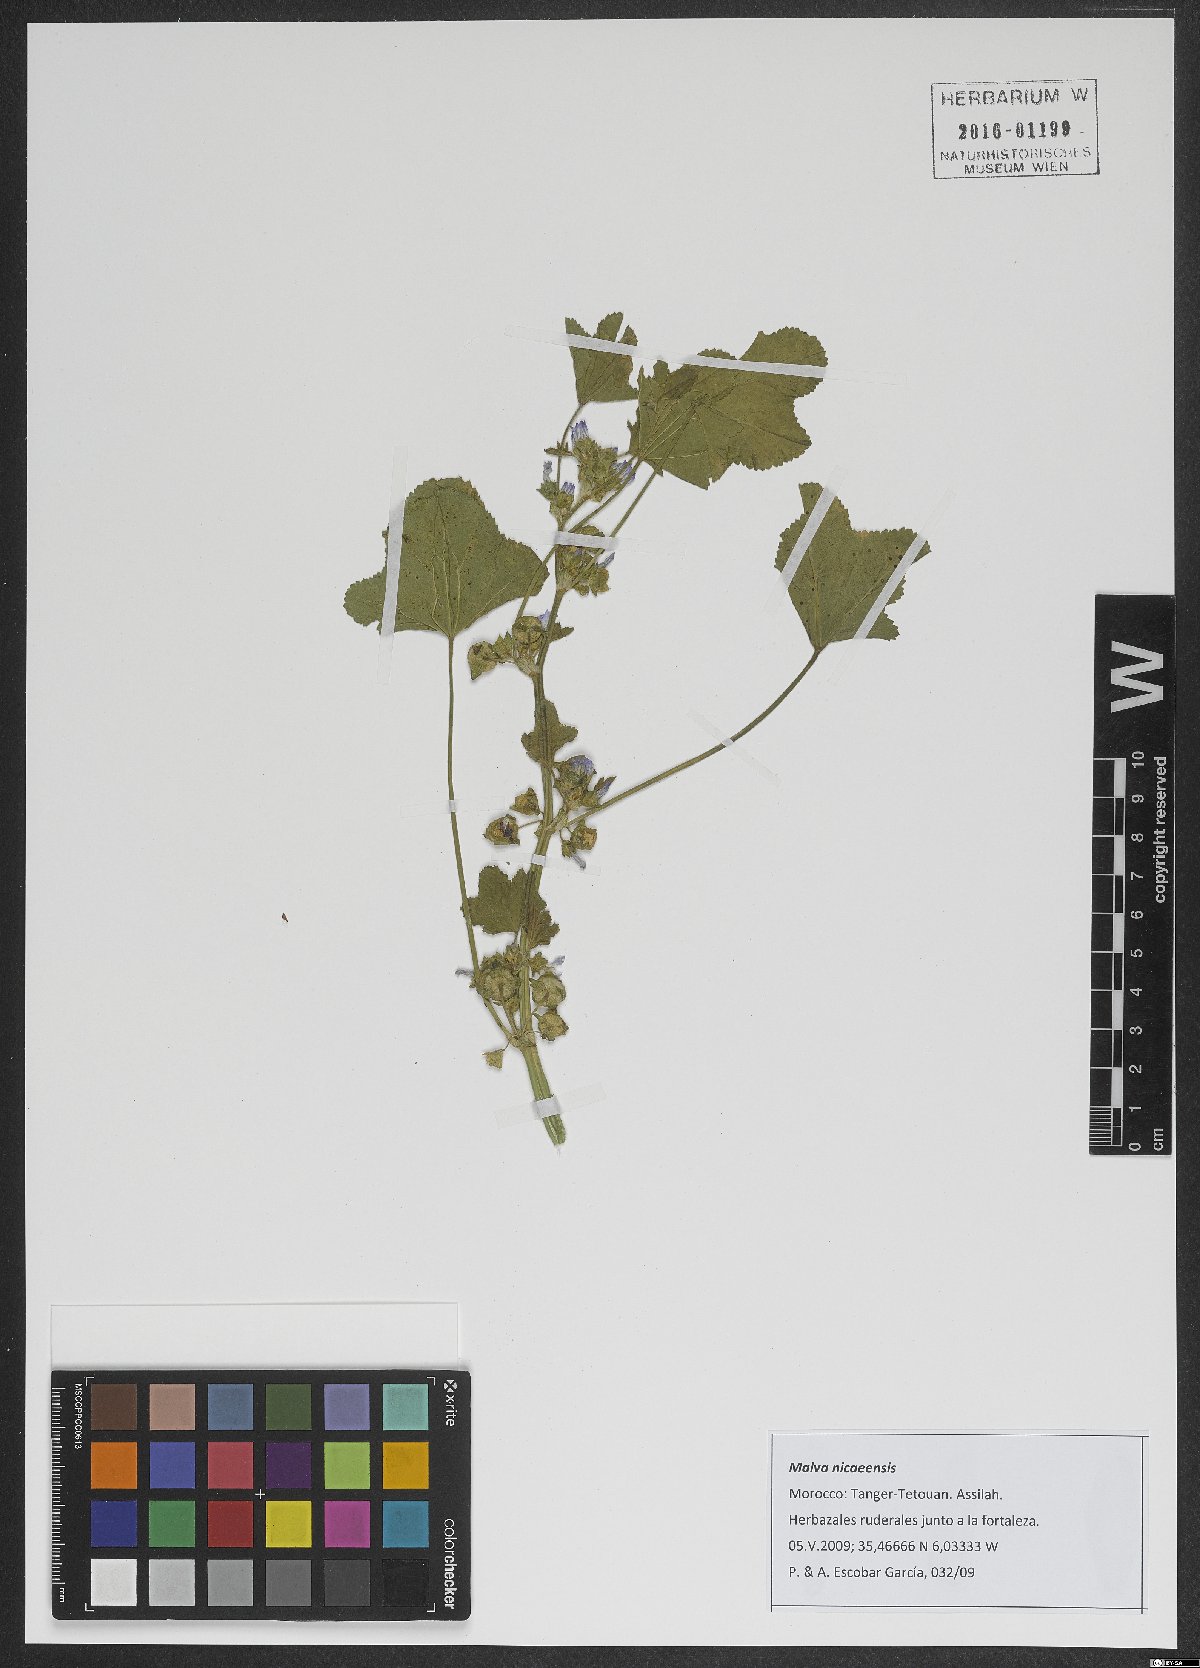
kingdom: Plantae
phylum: Tracheophyta
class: Magnoliopsida
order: Malvales
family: Malvaceae
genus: Malva
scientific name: Malva nicaeensis
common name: French mallow
